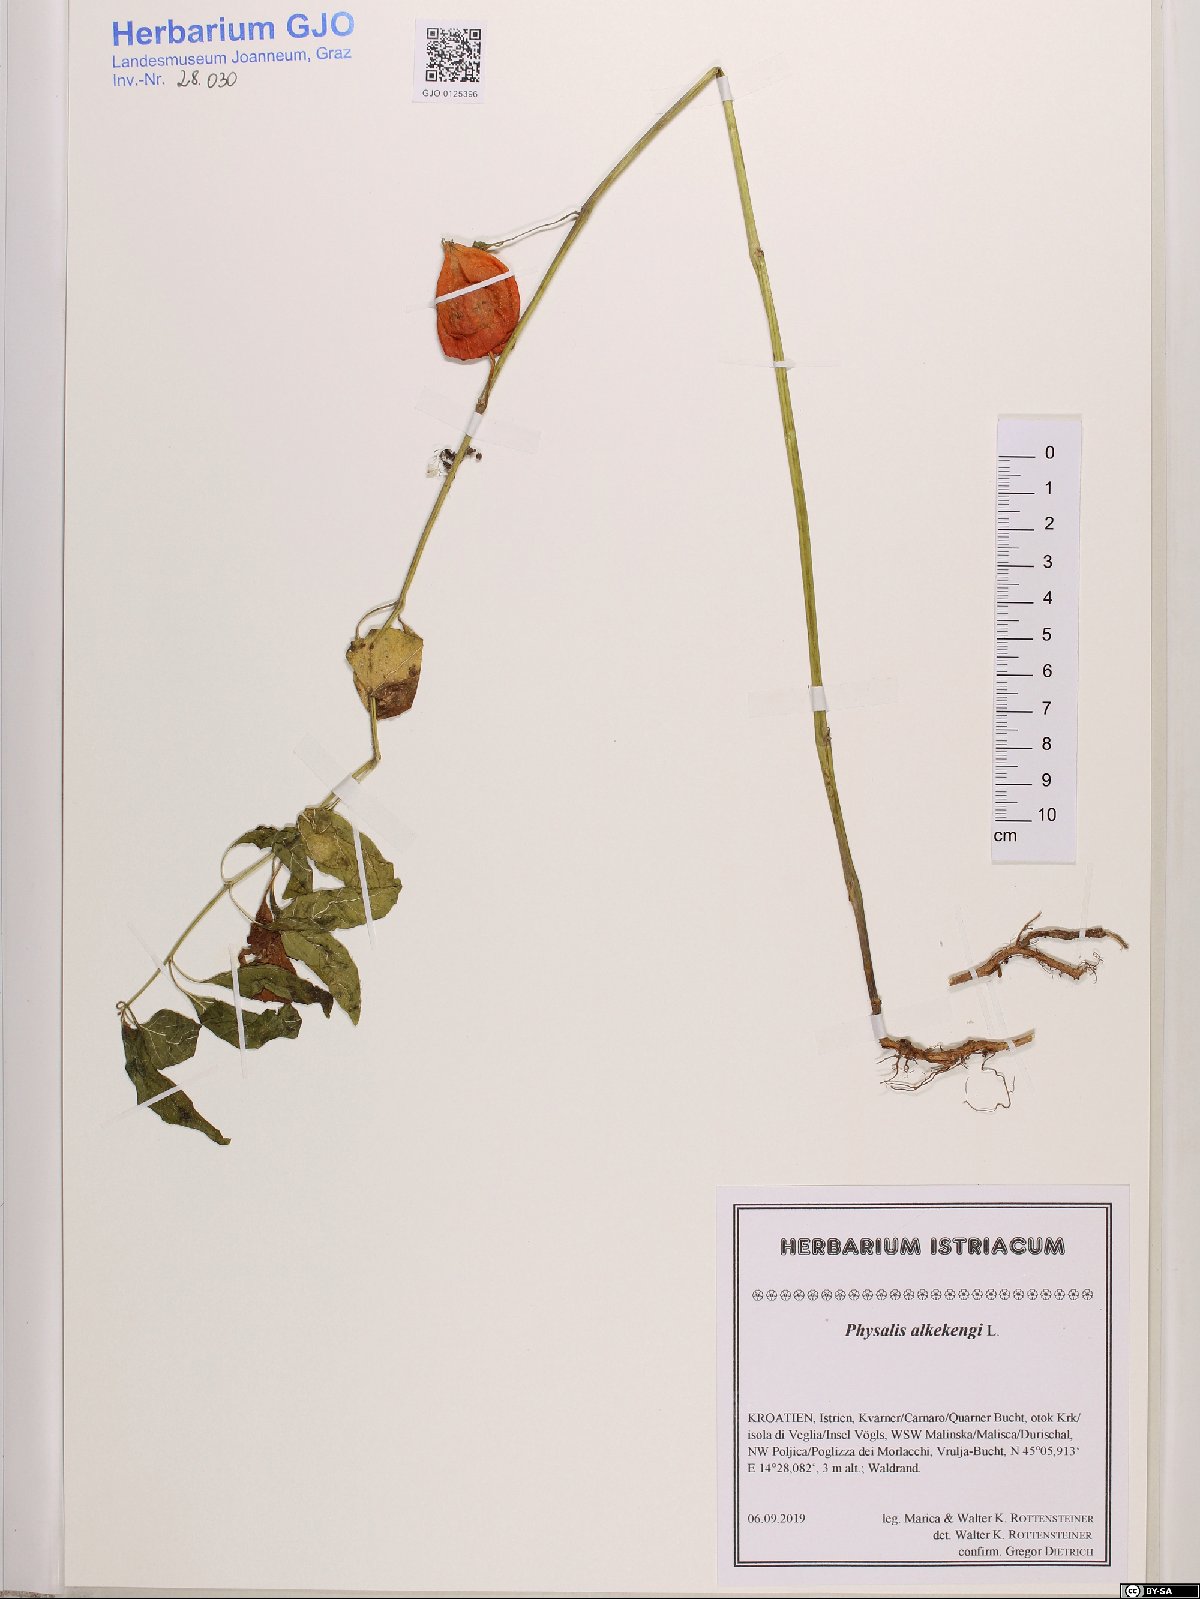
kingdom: Plantae
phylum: Tracheophyta
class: Magnoliopsida
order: Solanales
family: Solanaceae
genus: Alkekengi
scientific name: Alkekengi officinarum
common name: Japanese-lantern
